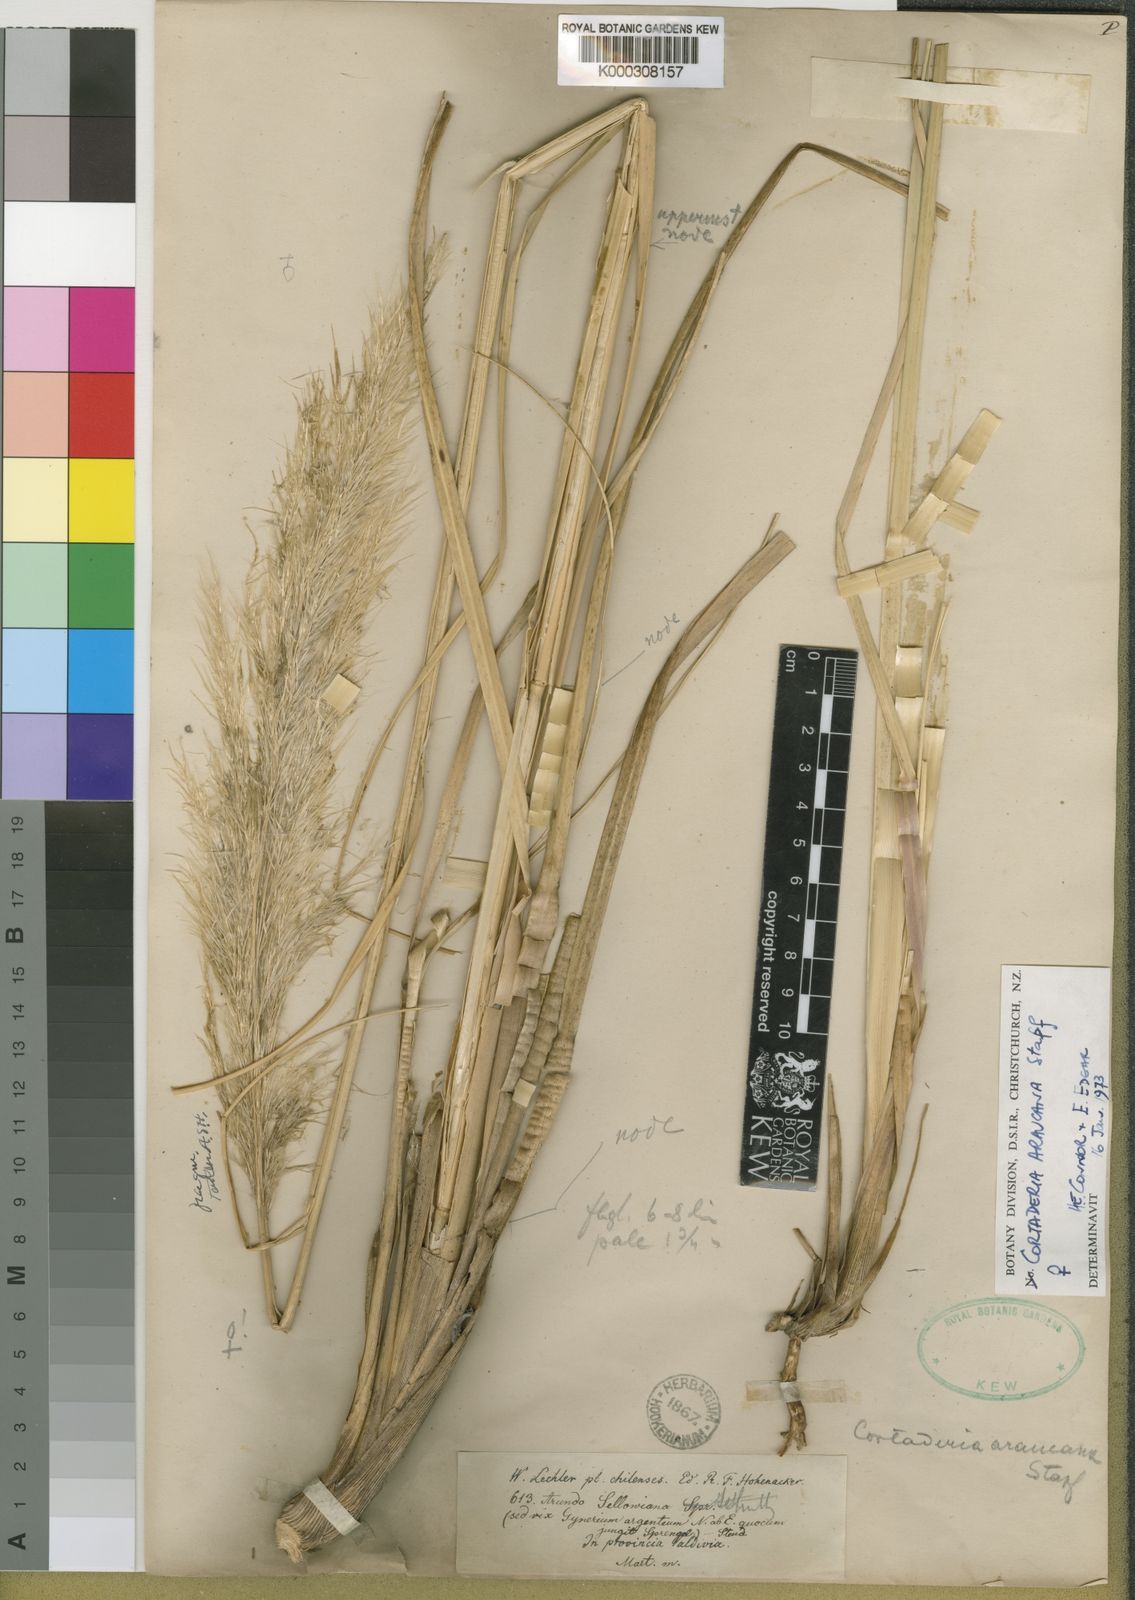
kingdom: Plantae
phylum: Tracheophyta
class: Liliopsida
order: Poales
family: Poaceae
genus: Cortaderia
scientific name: Cortaderia araucana
